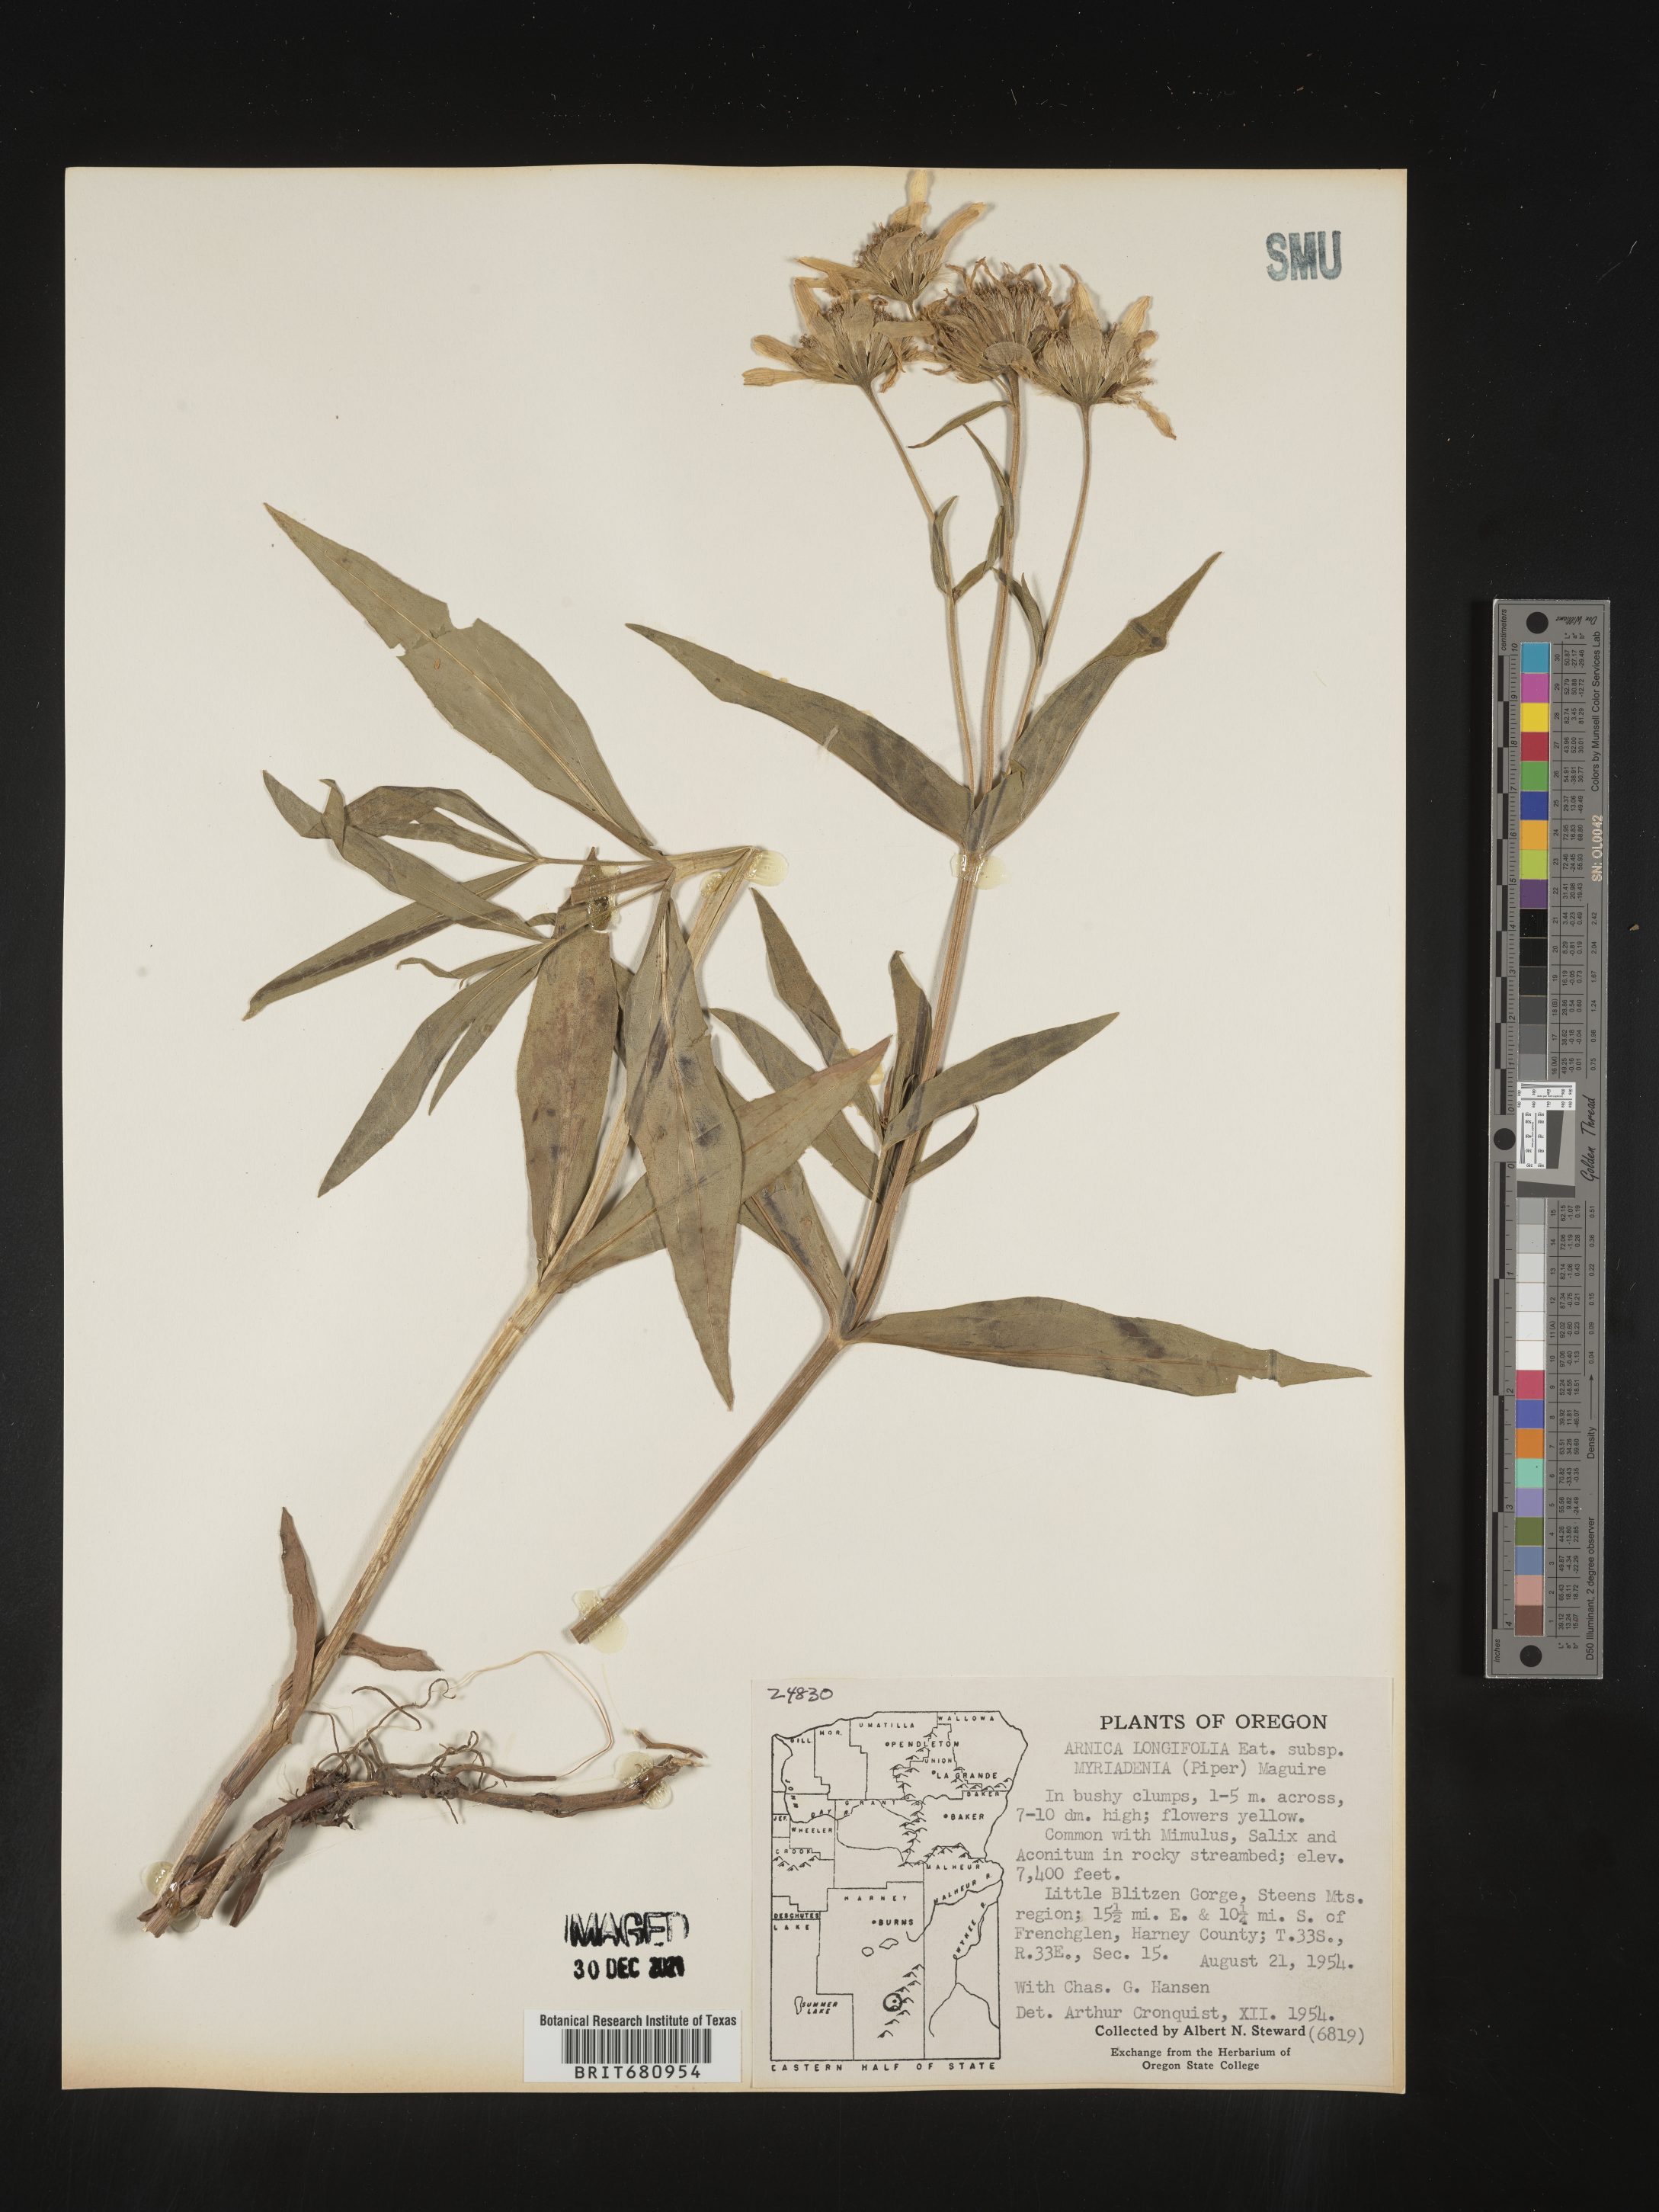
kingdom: Plantae
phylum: Tracheophyta
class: Magnoliopsida
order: Asterales
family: Asteraceae
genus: Arnica
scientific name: Arnica longifolia
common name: Spear-leaf arnica
